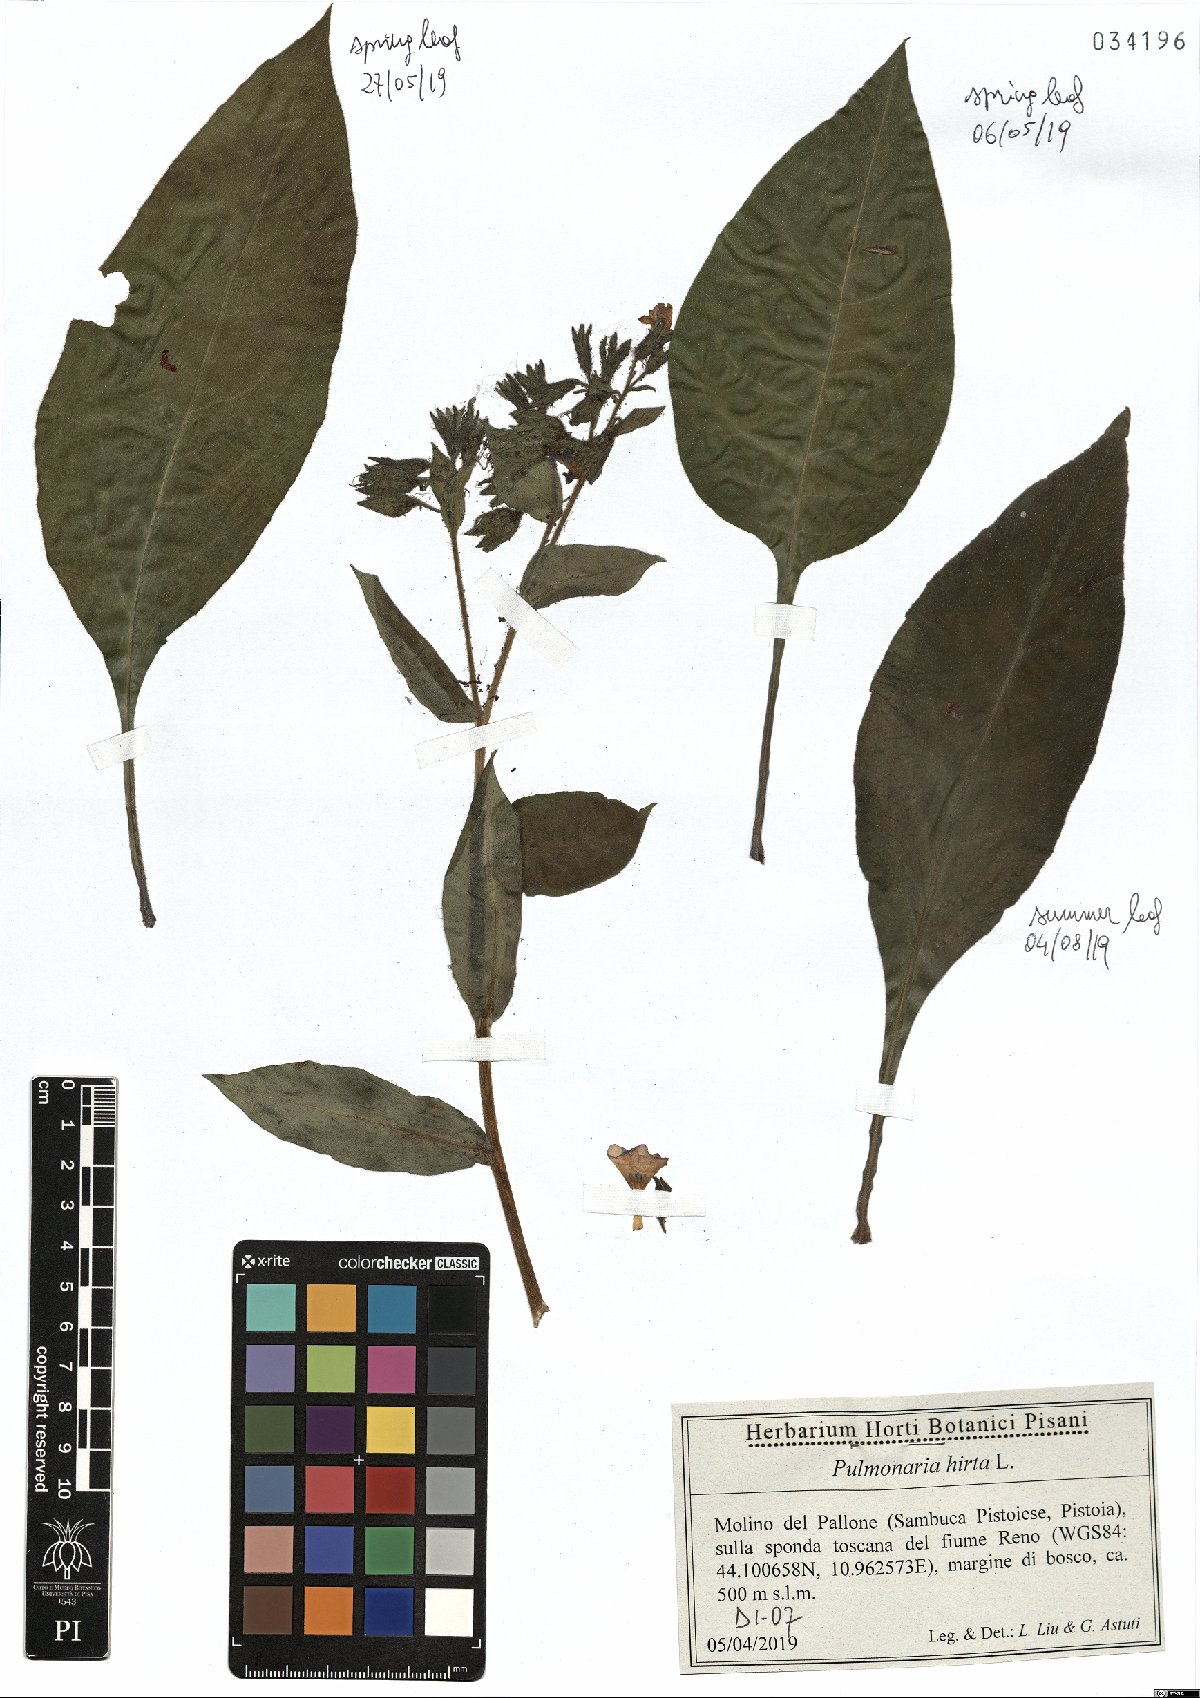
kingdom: Plantae
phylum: Tracheophyta
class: Magnoliopsida
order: Boraginales
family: Boraginaceae
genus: Pulmonaria
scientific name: Pulmonaria hirta
